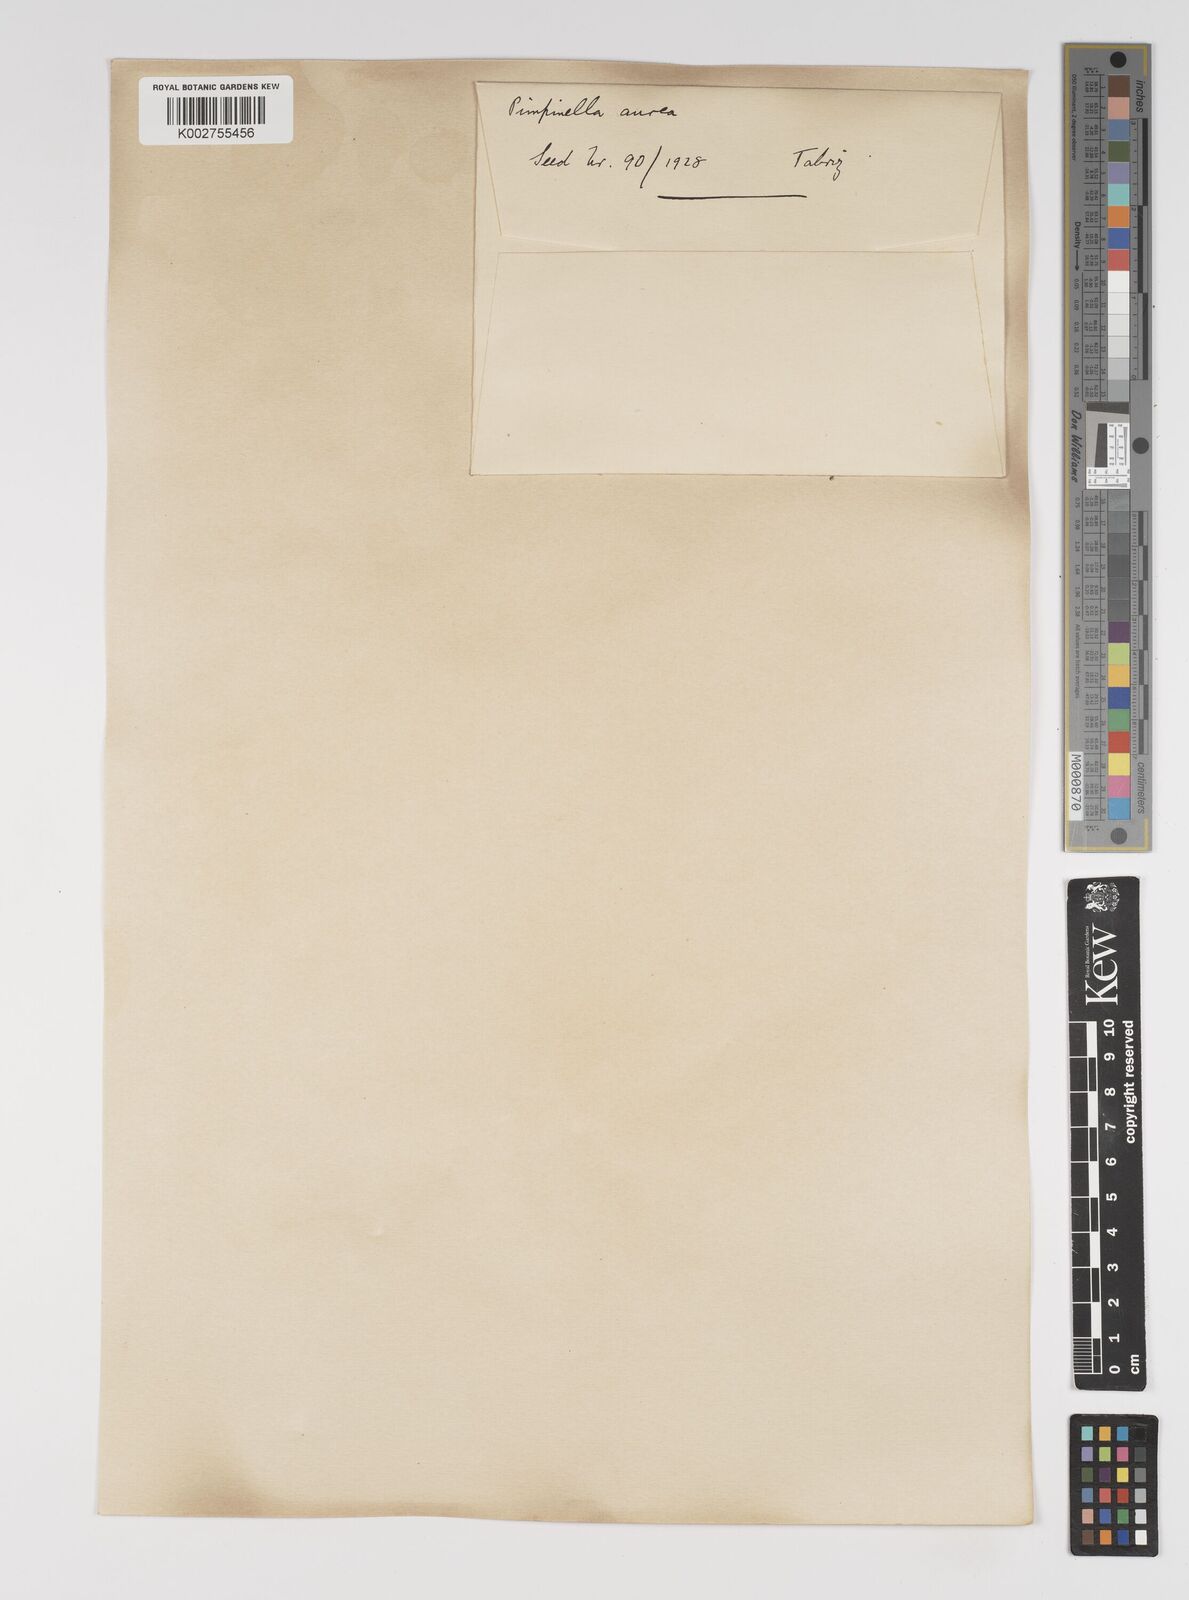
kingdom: Plantae
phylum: Tracheophyta
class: Magnoliopsida
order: Apiales
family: Apiaceae
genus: Pimpinella
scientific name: Pimpinella aurea
